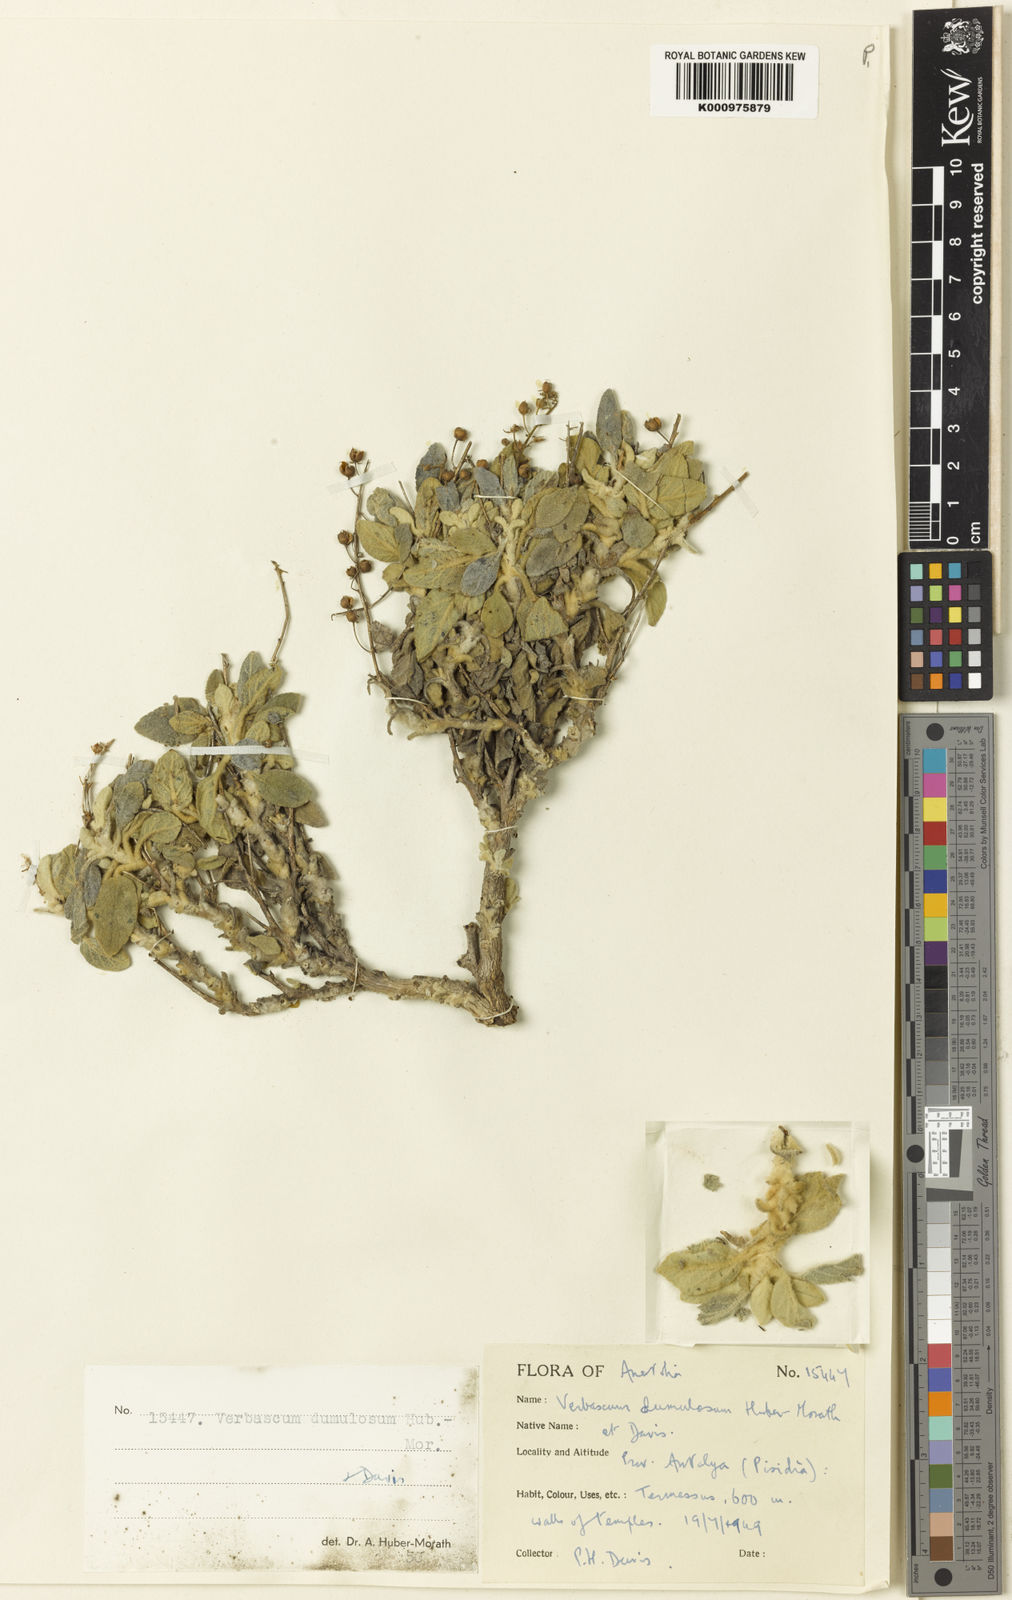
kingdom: Plantae
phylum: Tracheophyta
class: Magnoliopsida
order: Lamiales
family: Scrophulariaceae
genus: Verbascum
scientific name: Verbascum dumulosum
